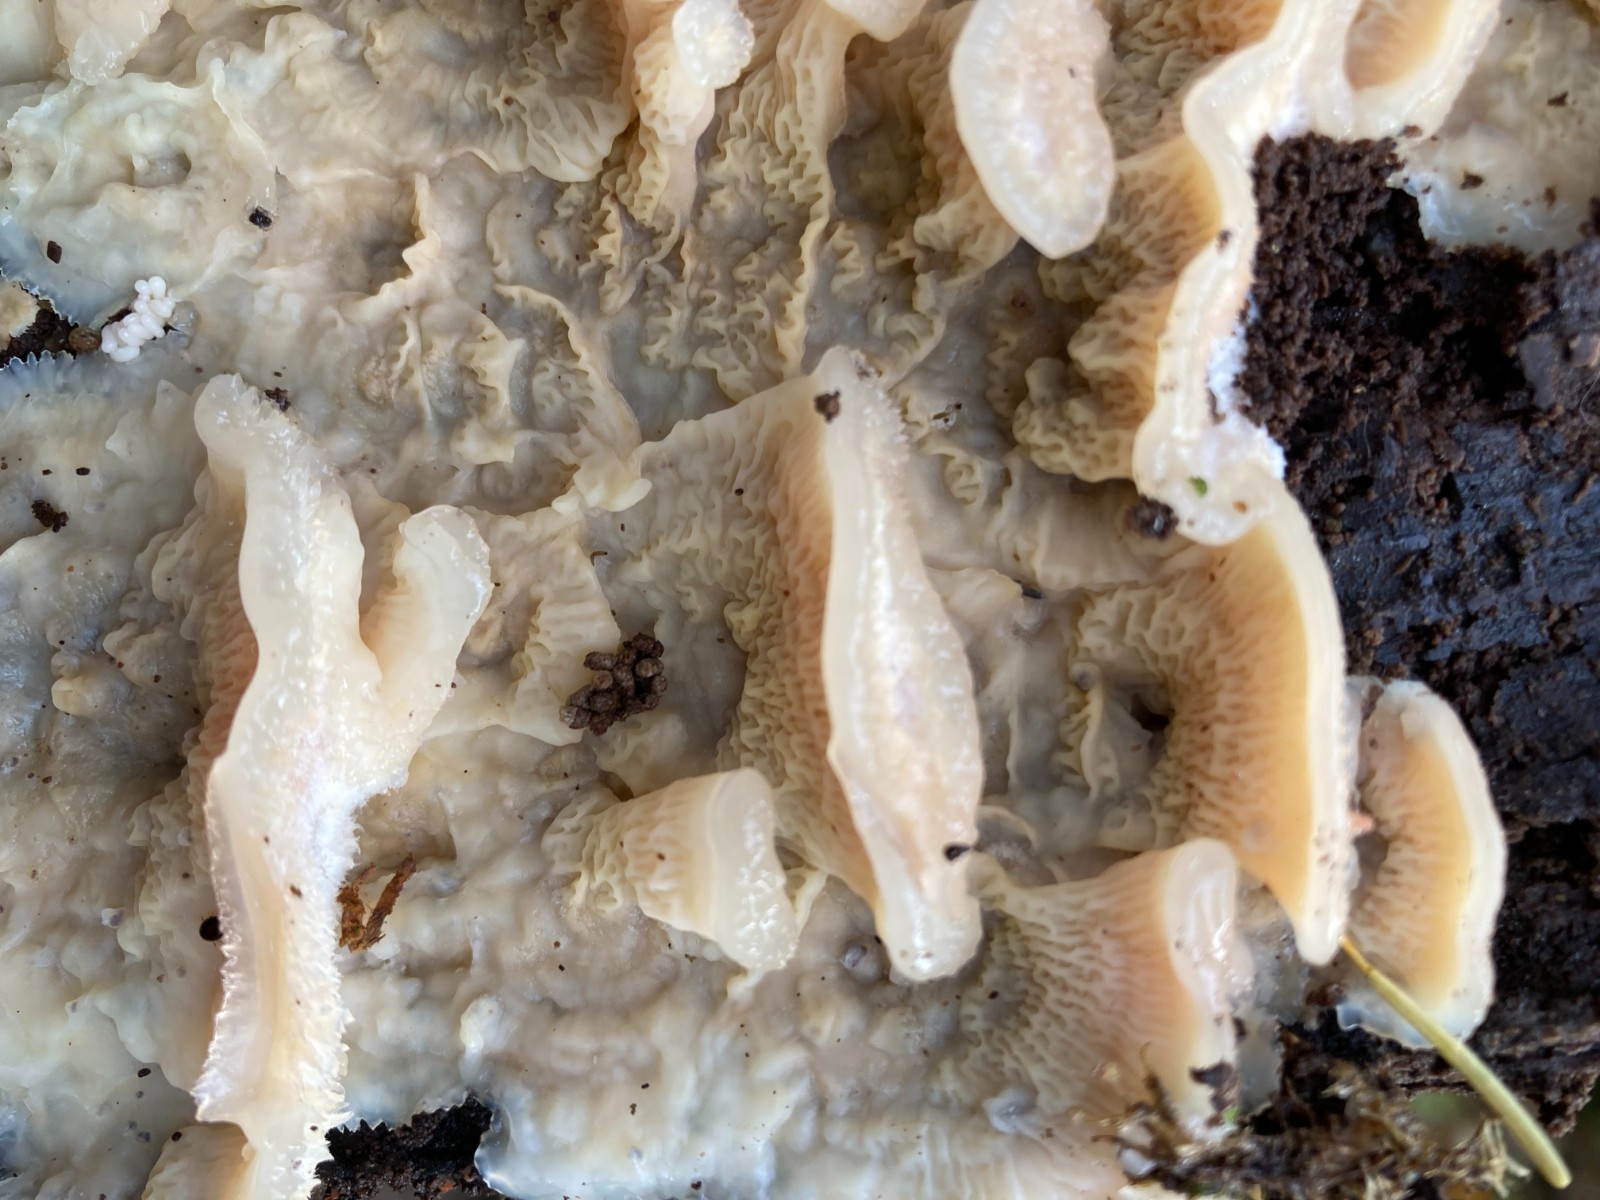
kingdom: Fungi
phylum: Basidiomycota
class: Agaricomycetes
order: Polyporales
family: Meruliaceae
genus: Phlebia
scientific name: Phlebia tremellosa
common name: bævrende åresvamp
